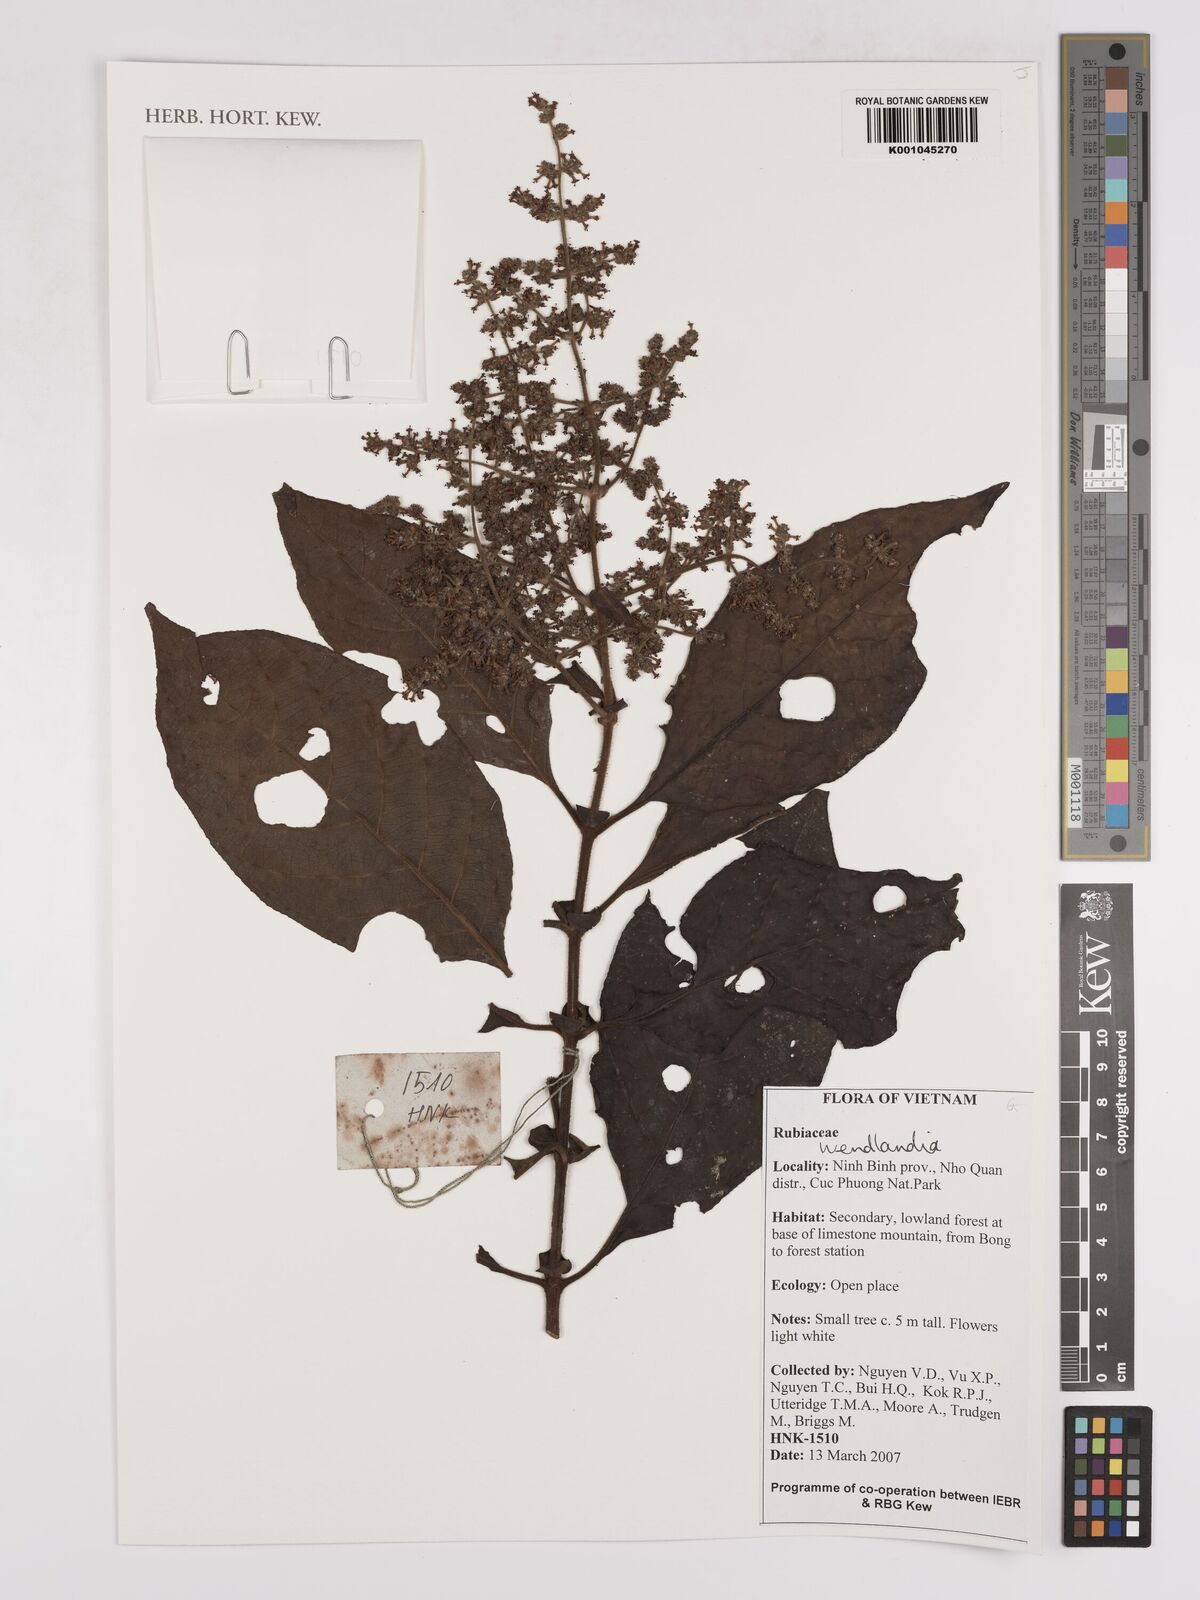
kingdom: Plantae
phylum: Tracheophyta
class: Magnoliopsida
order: Gentianales
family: Rubiaceae
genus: Wendlandia
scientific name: Wendlandia
